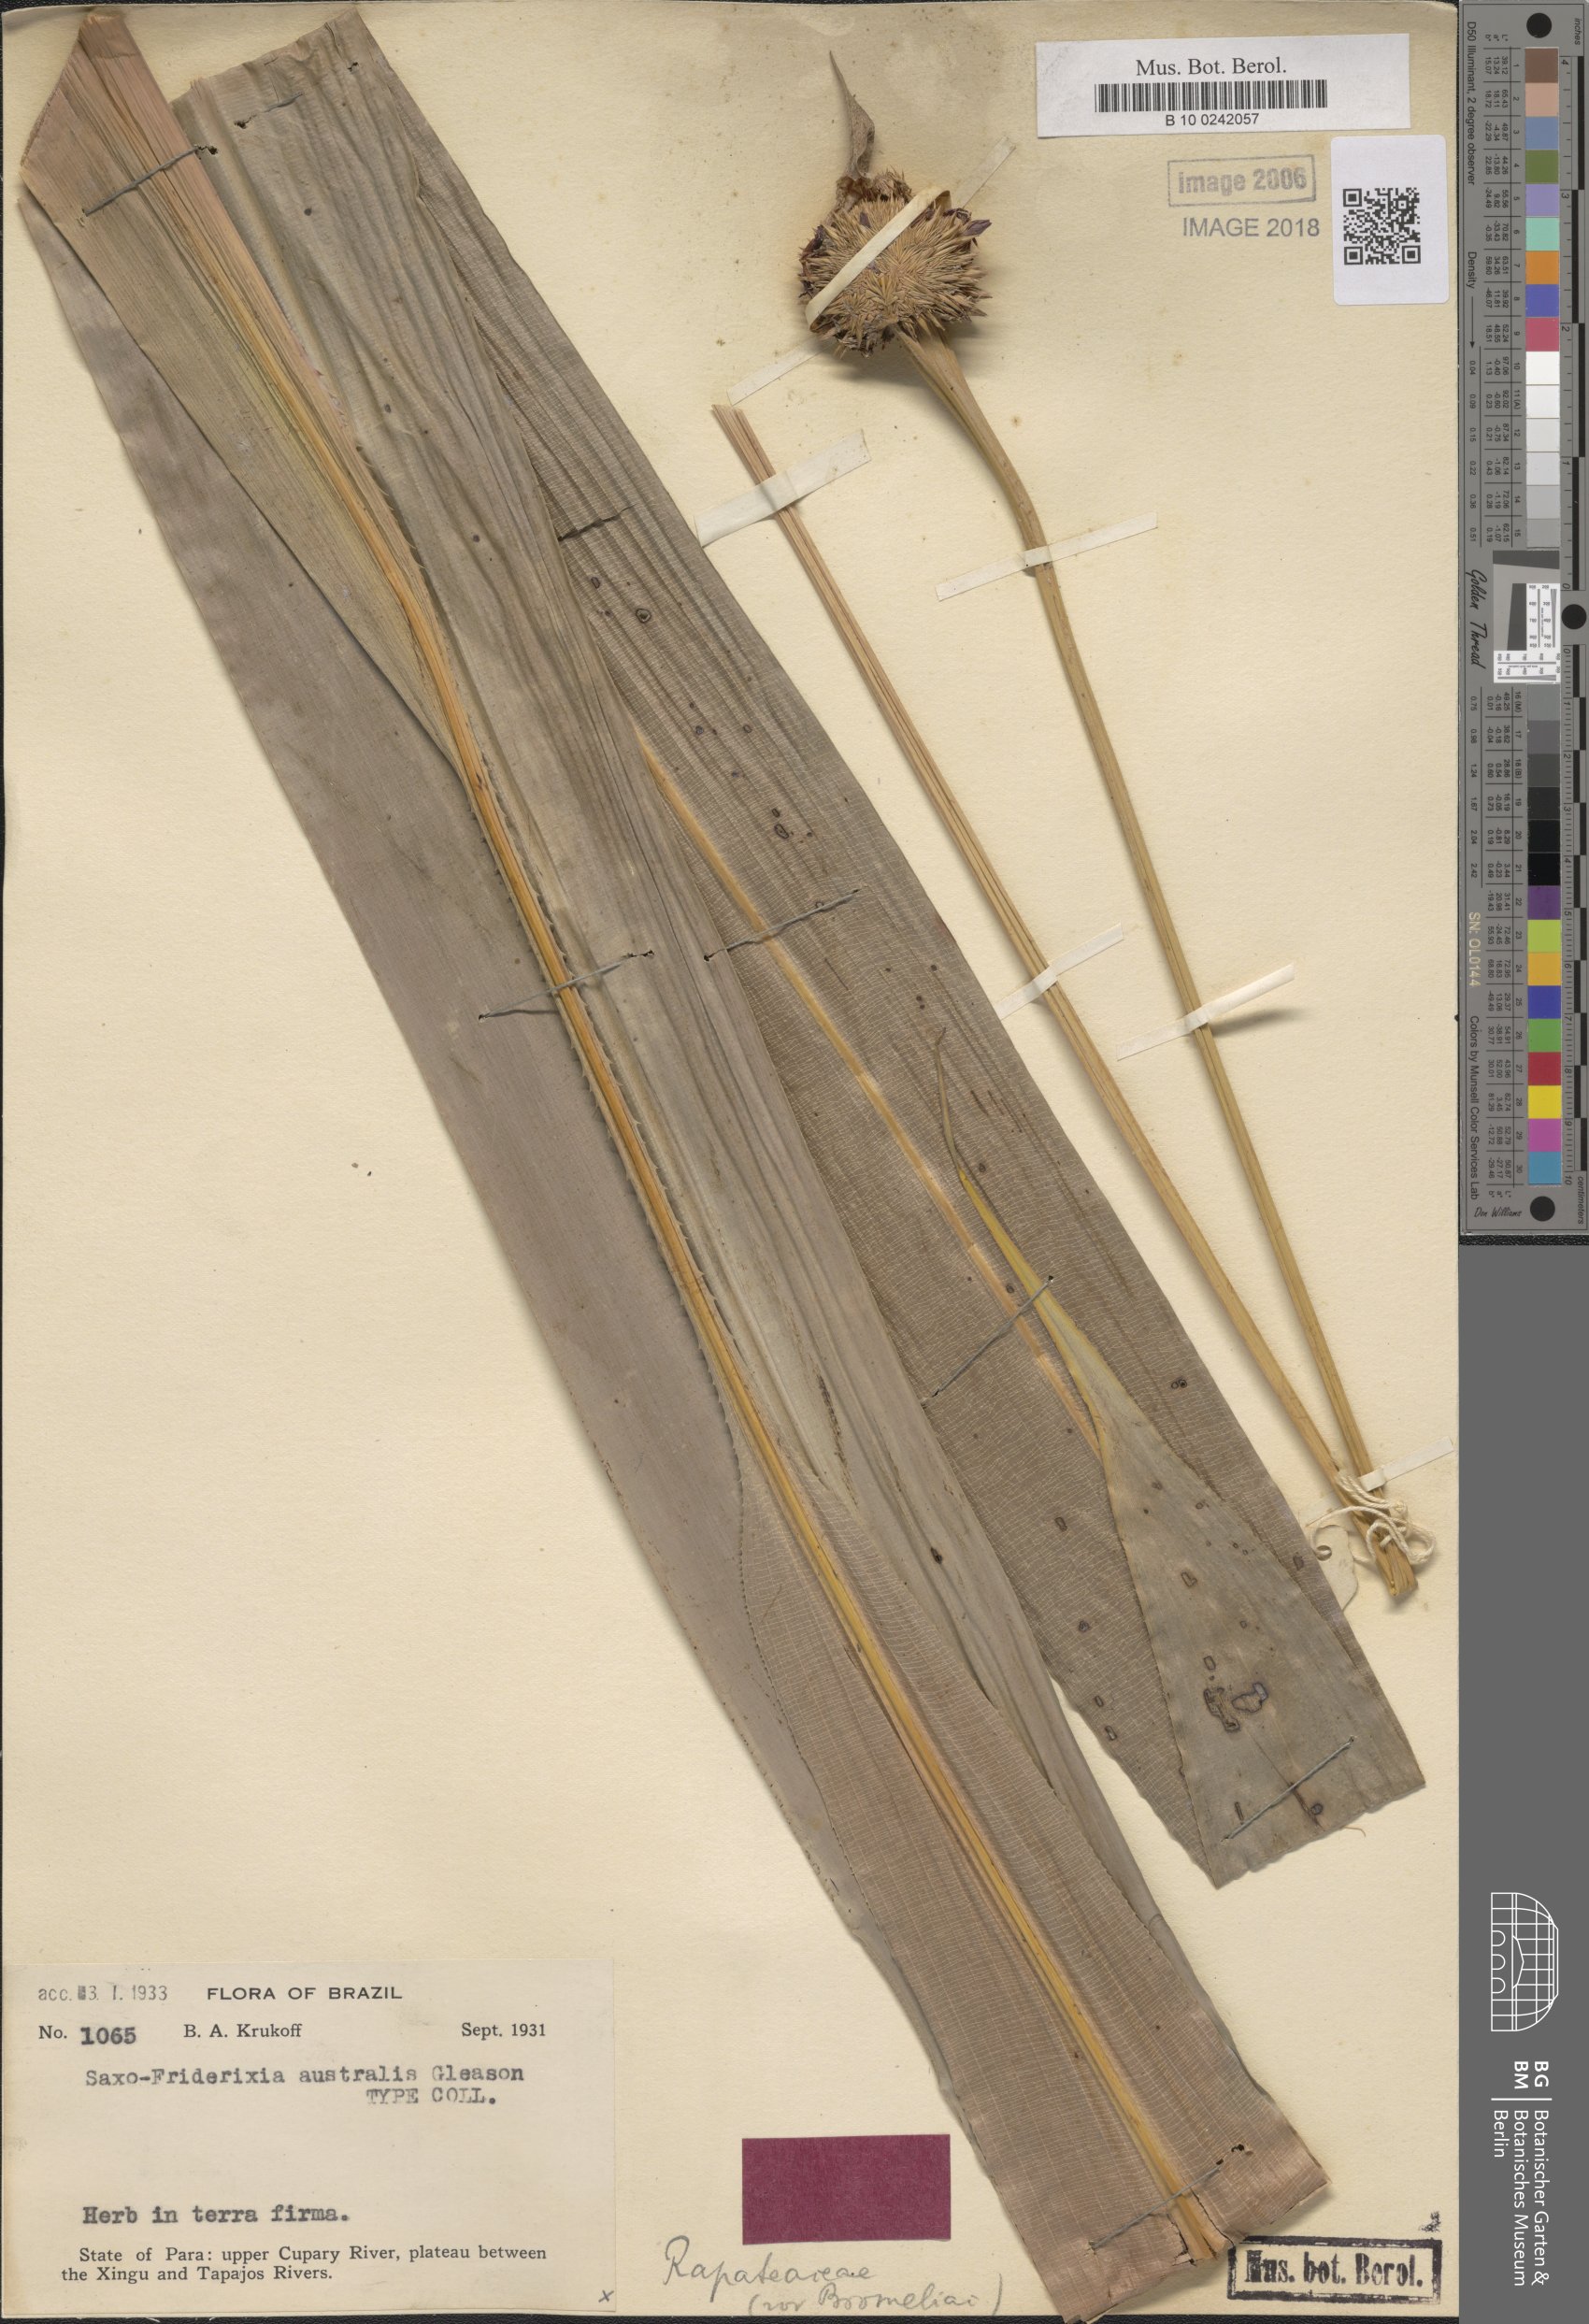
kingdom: Plantae
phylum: Tracheophyta
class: Liliopsida
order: Poales
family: Rapateaceae
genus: Saxofridericia
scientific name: Saxofridericia aculeata
